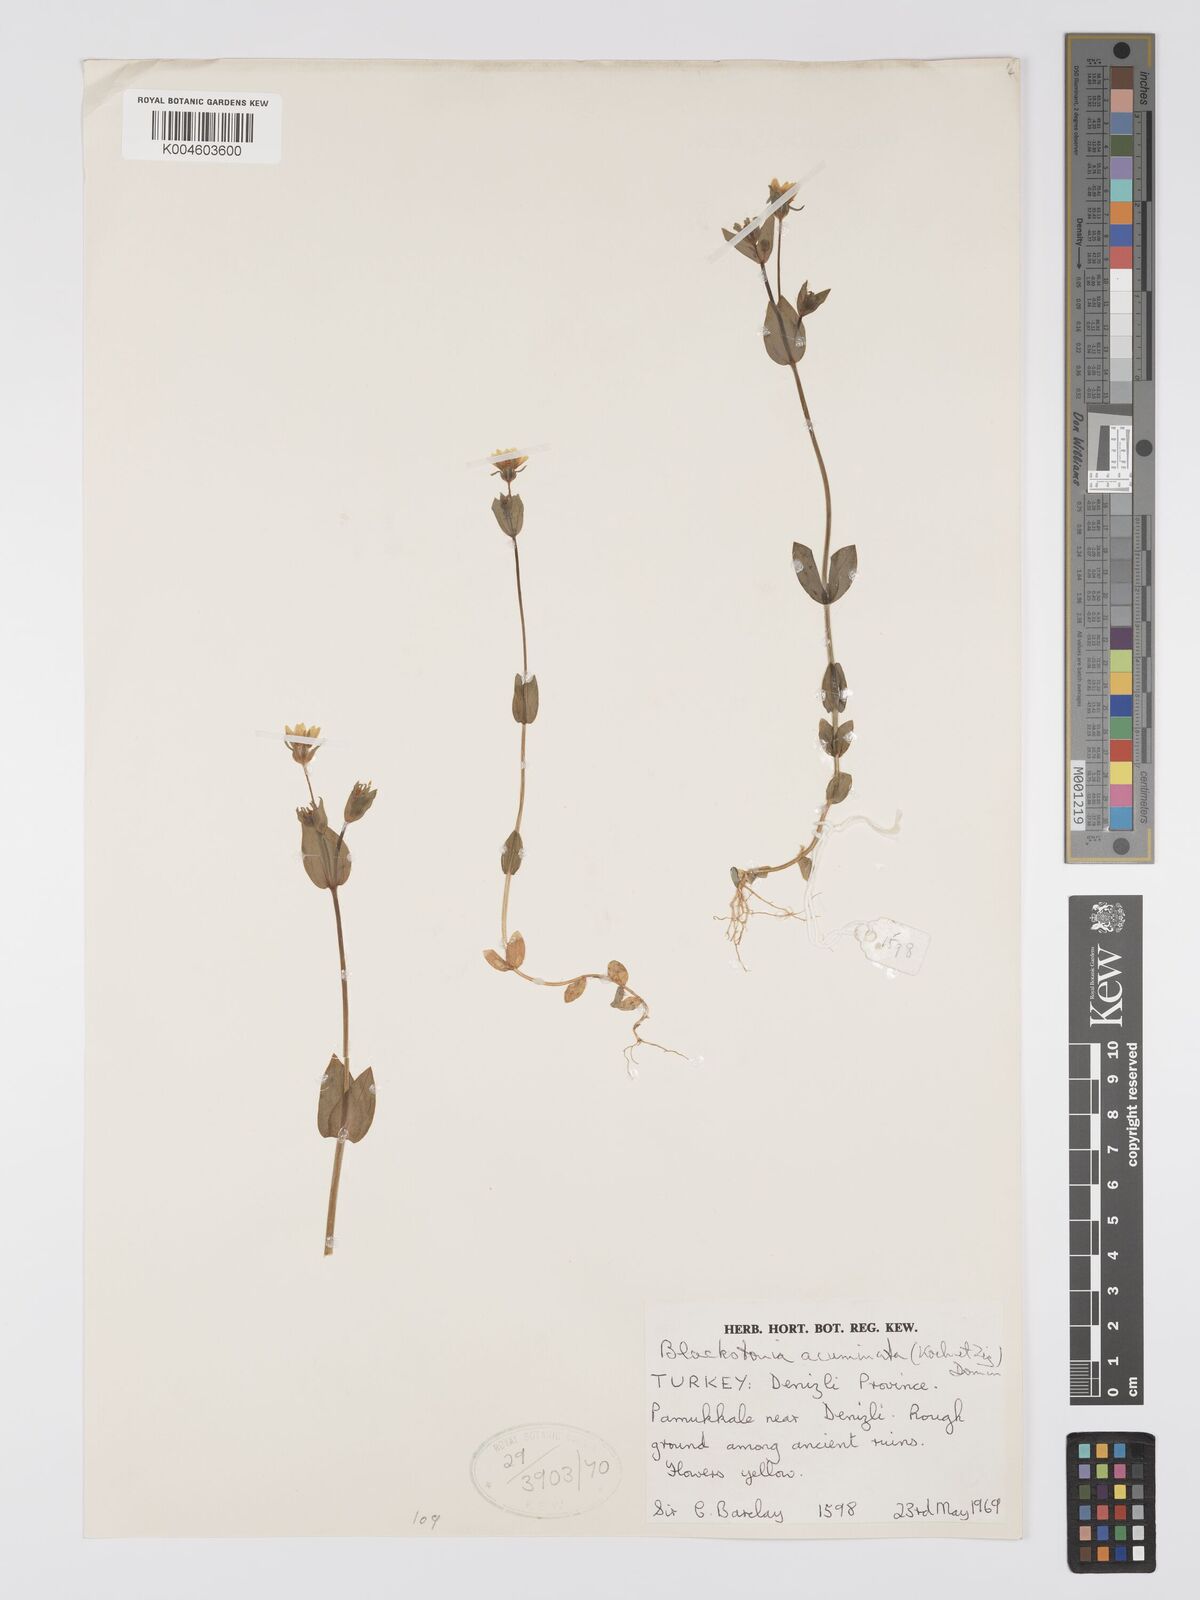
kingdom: Plantae
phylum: Tracheophyta
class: Magnoliopsida
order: Gentianales
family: Gentianaceae
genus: Blackstonia
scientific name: Blackstonia acuminata
